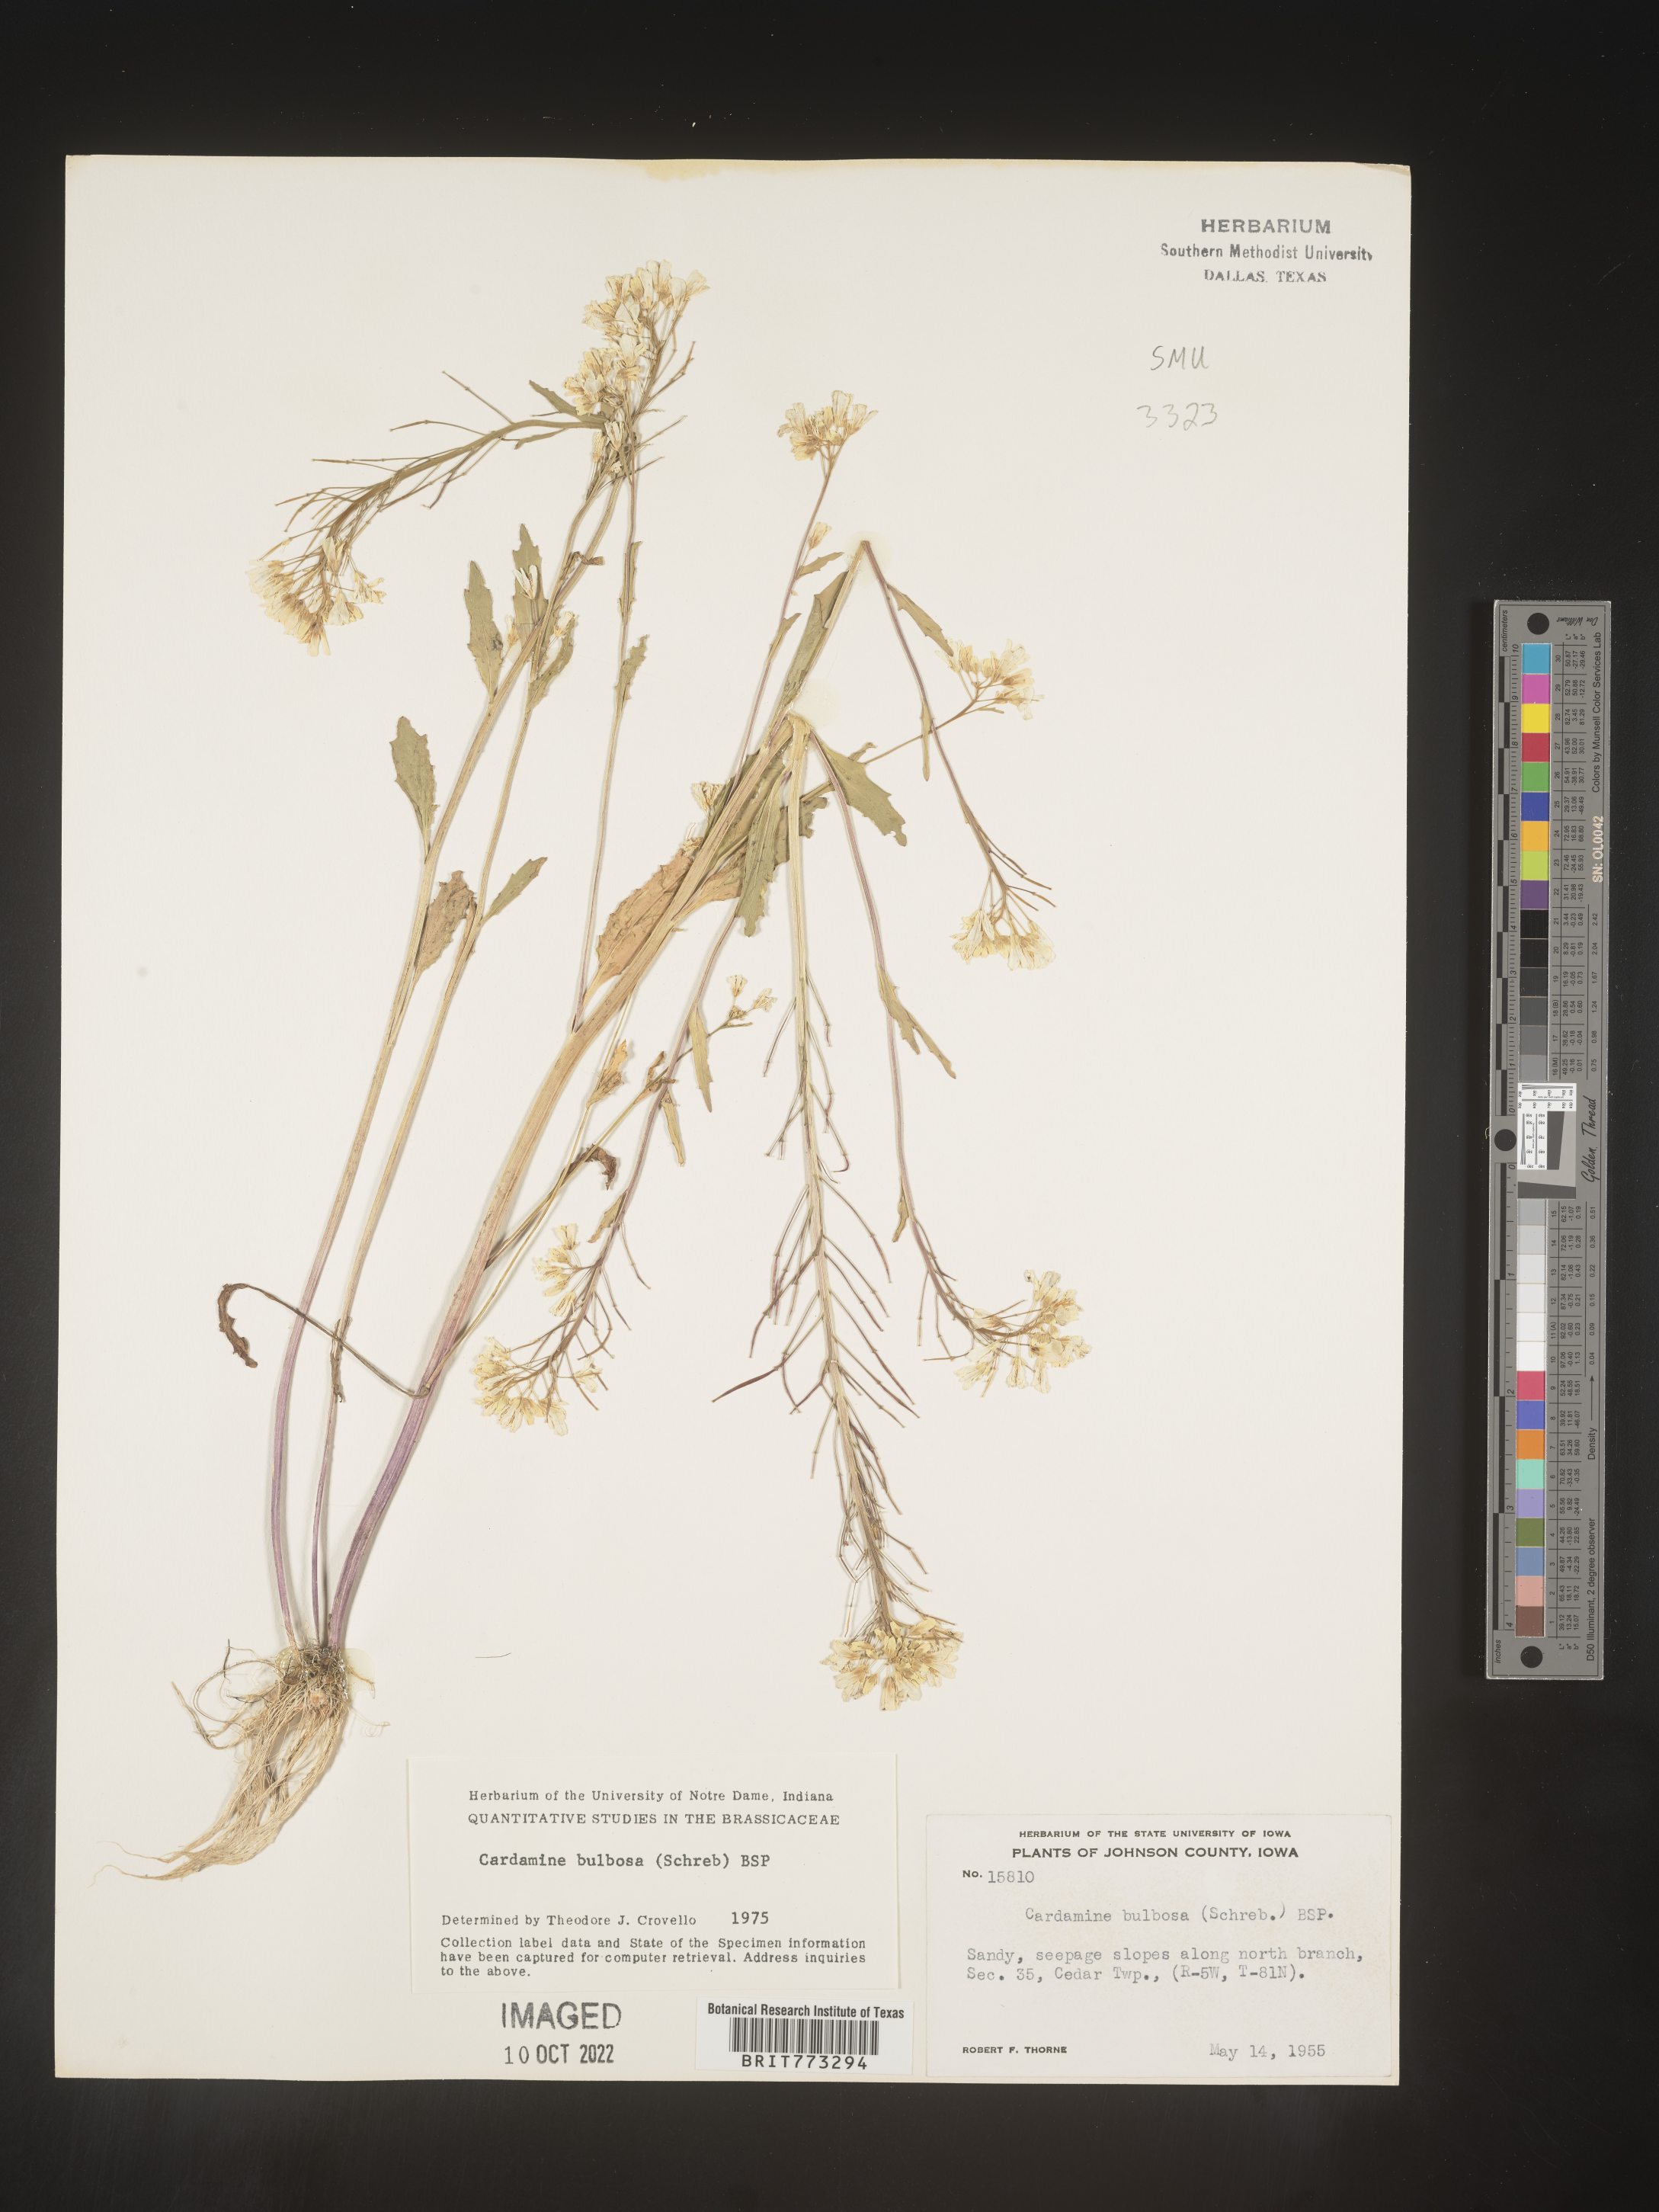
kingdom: Plantae
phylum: Tracheophyta
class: Magnoliopsida
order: Brassicales
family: Brassicaceae
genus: Cardamine
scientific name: Cardamine bulbosa
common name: Spring cress
